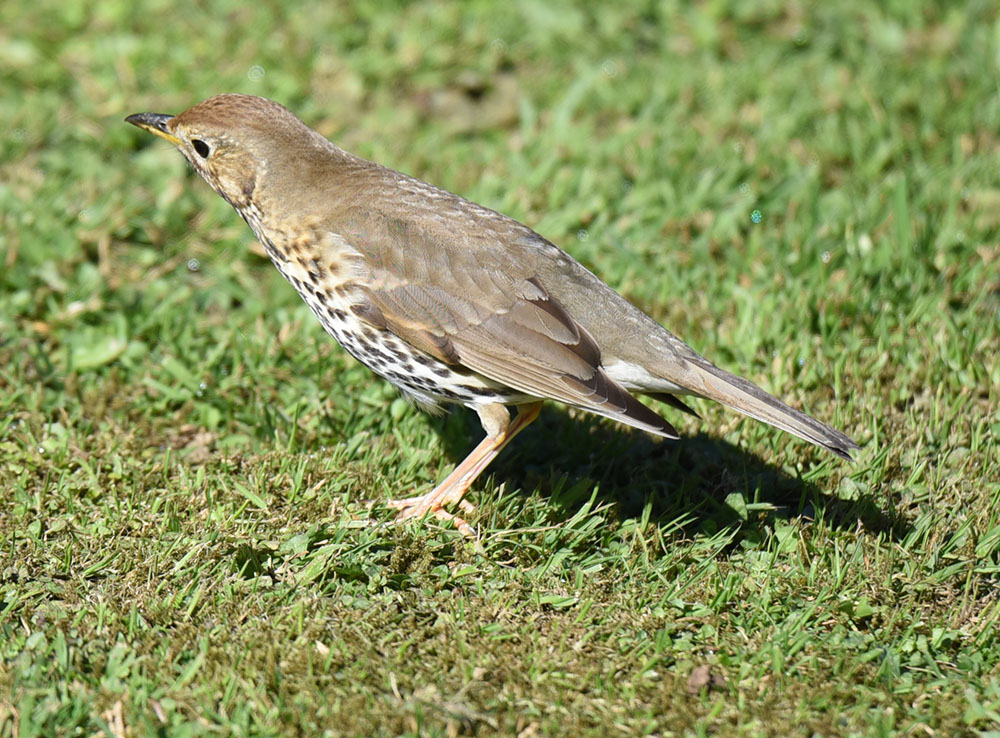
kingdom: Animalia
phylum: Chordata
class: Aves
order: Passeriformes
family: Turdidae
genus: Turdus
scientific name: Turdus philomelos
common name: Song thrush
